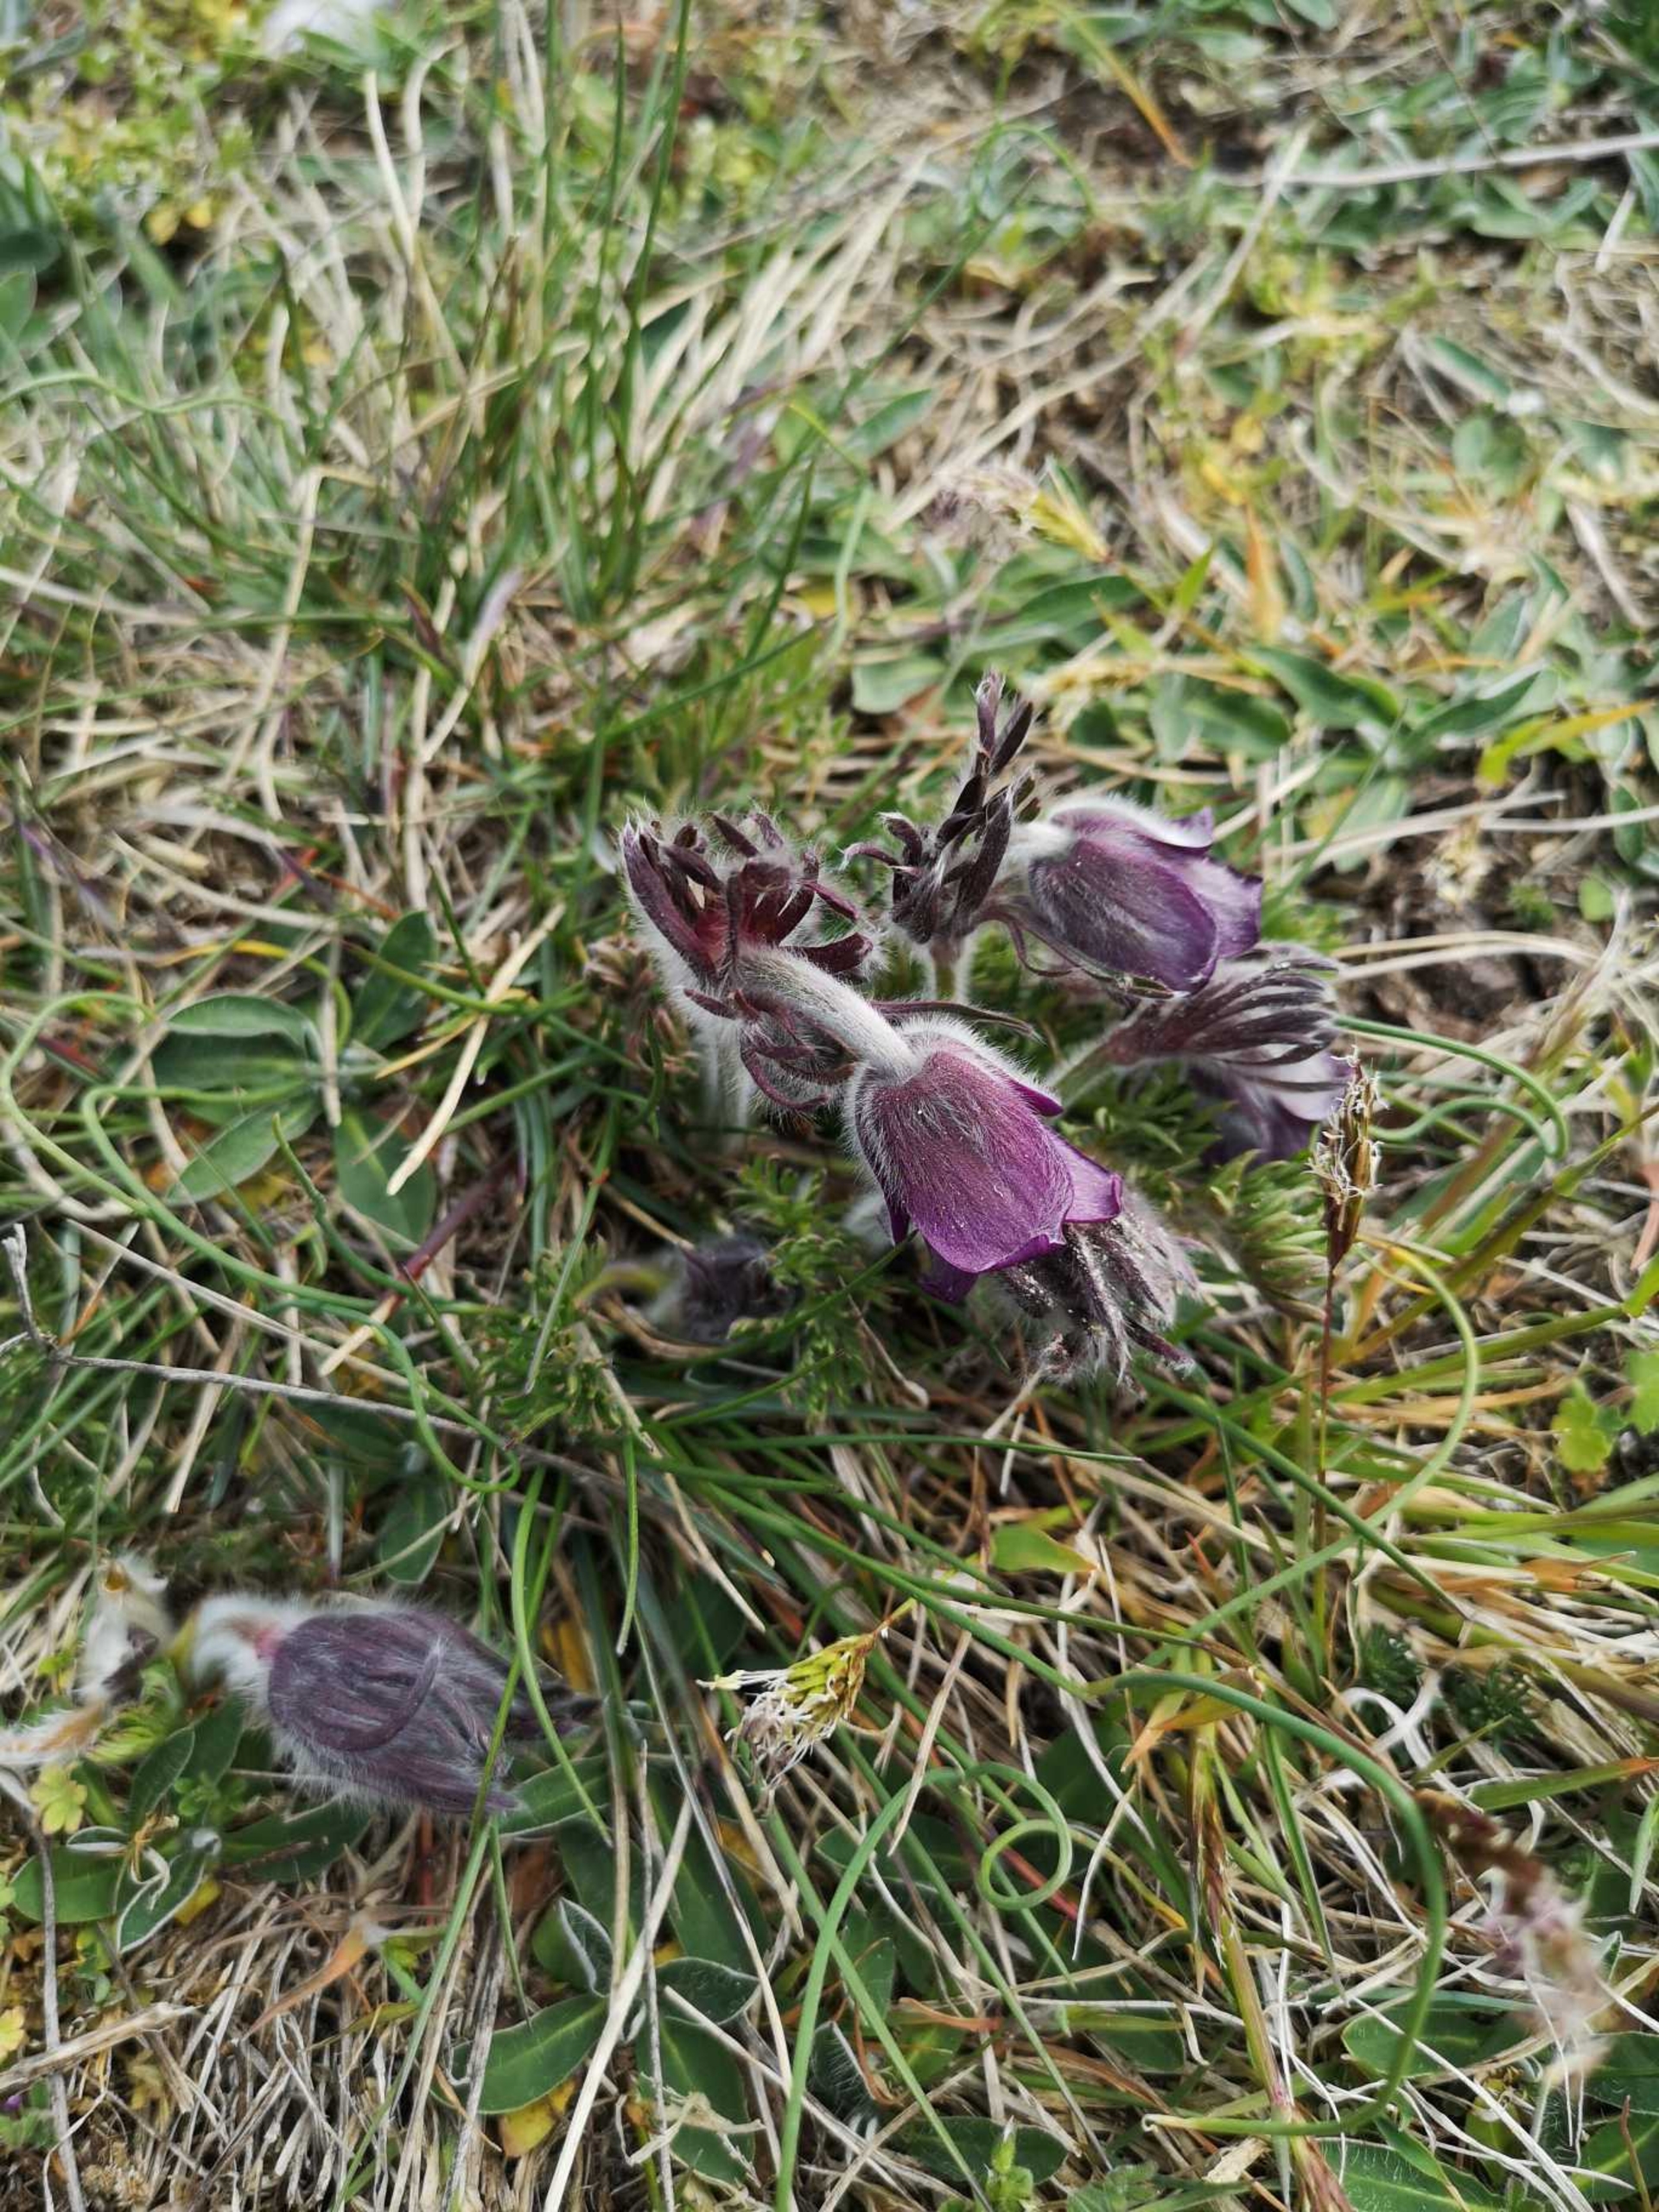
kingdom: Plantae
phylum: Tracheophyta
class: Magnoliopsida
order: Ranunculales
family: Ranunculaceae
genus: Pulsatilla
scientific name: Pulsatilla pratensis
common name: Nikkende kobjælde
